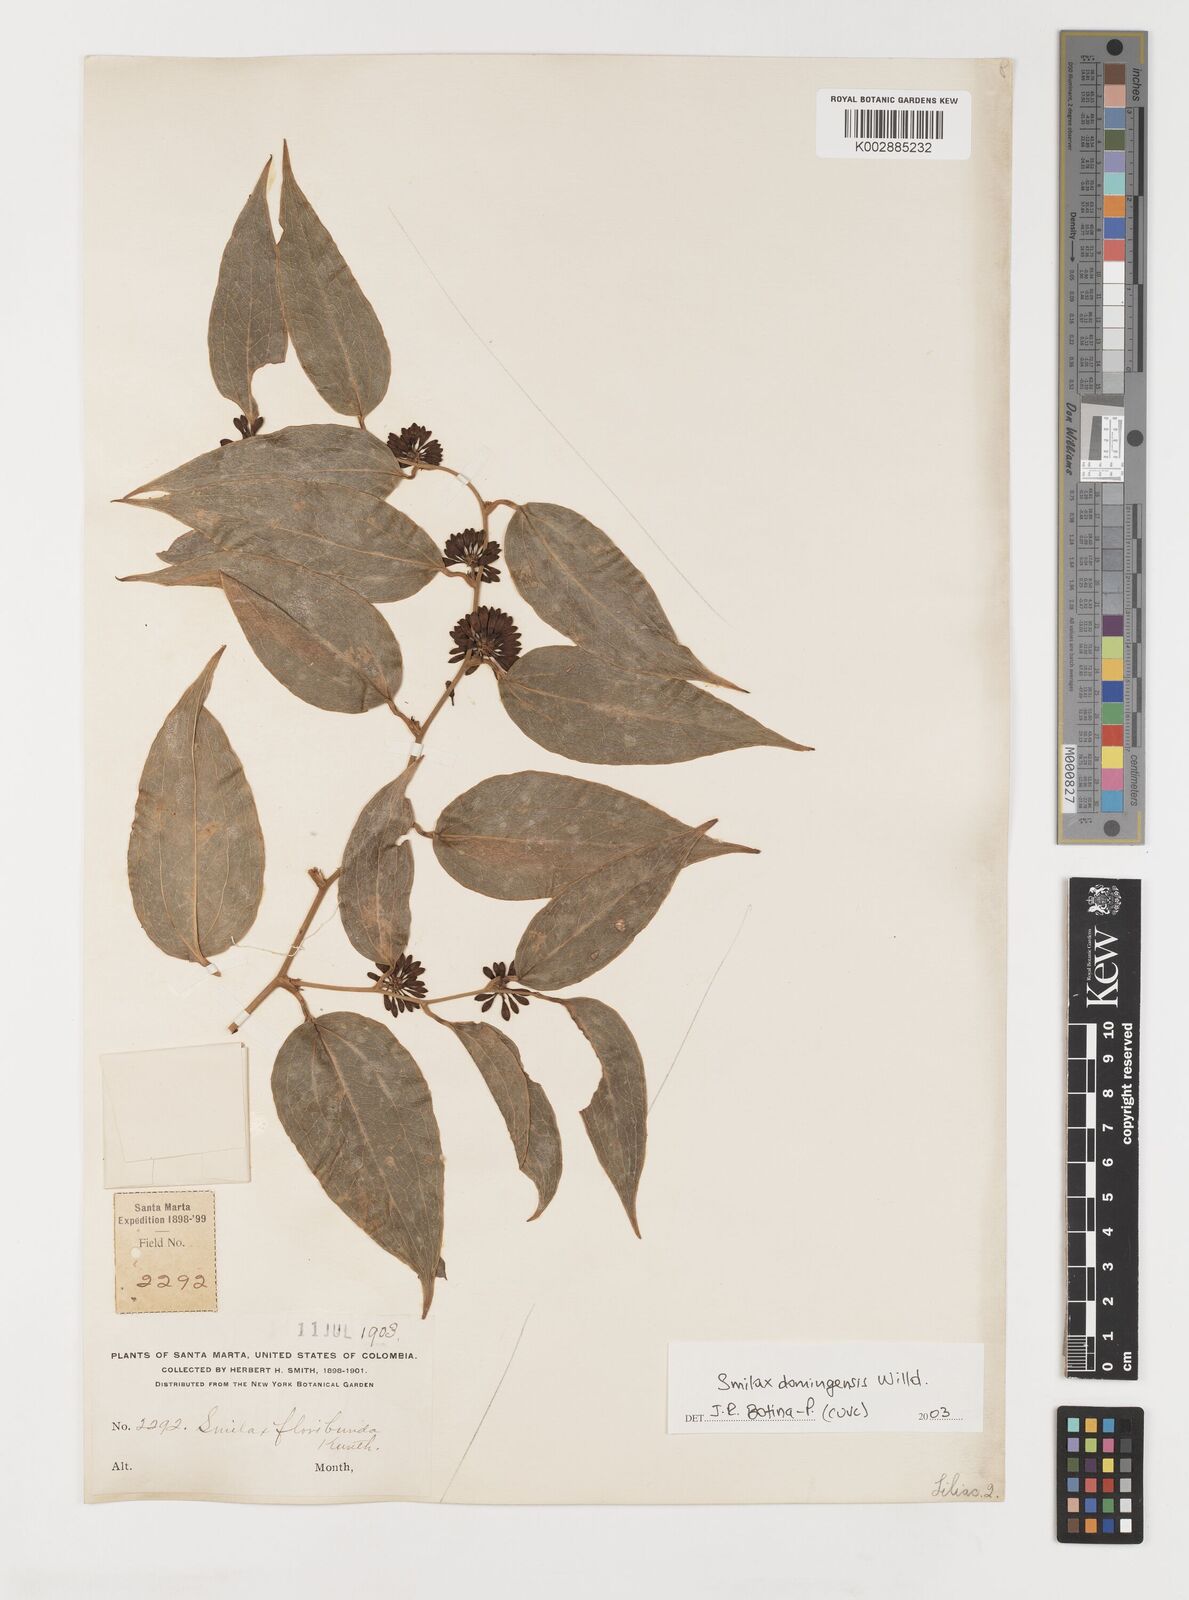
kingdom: Plantae
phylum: Tracheophyta
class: Liliopsida
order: Liliales
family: Smilacaceae
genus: Smilax
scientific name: Smilax domingensis
